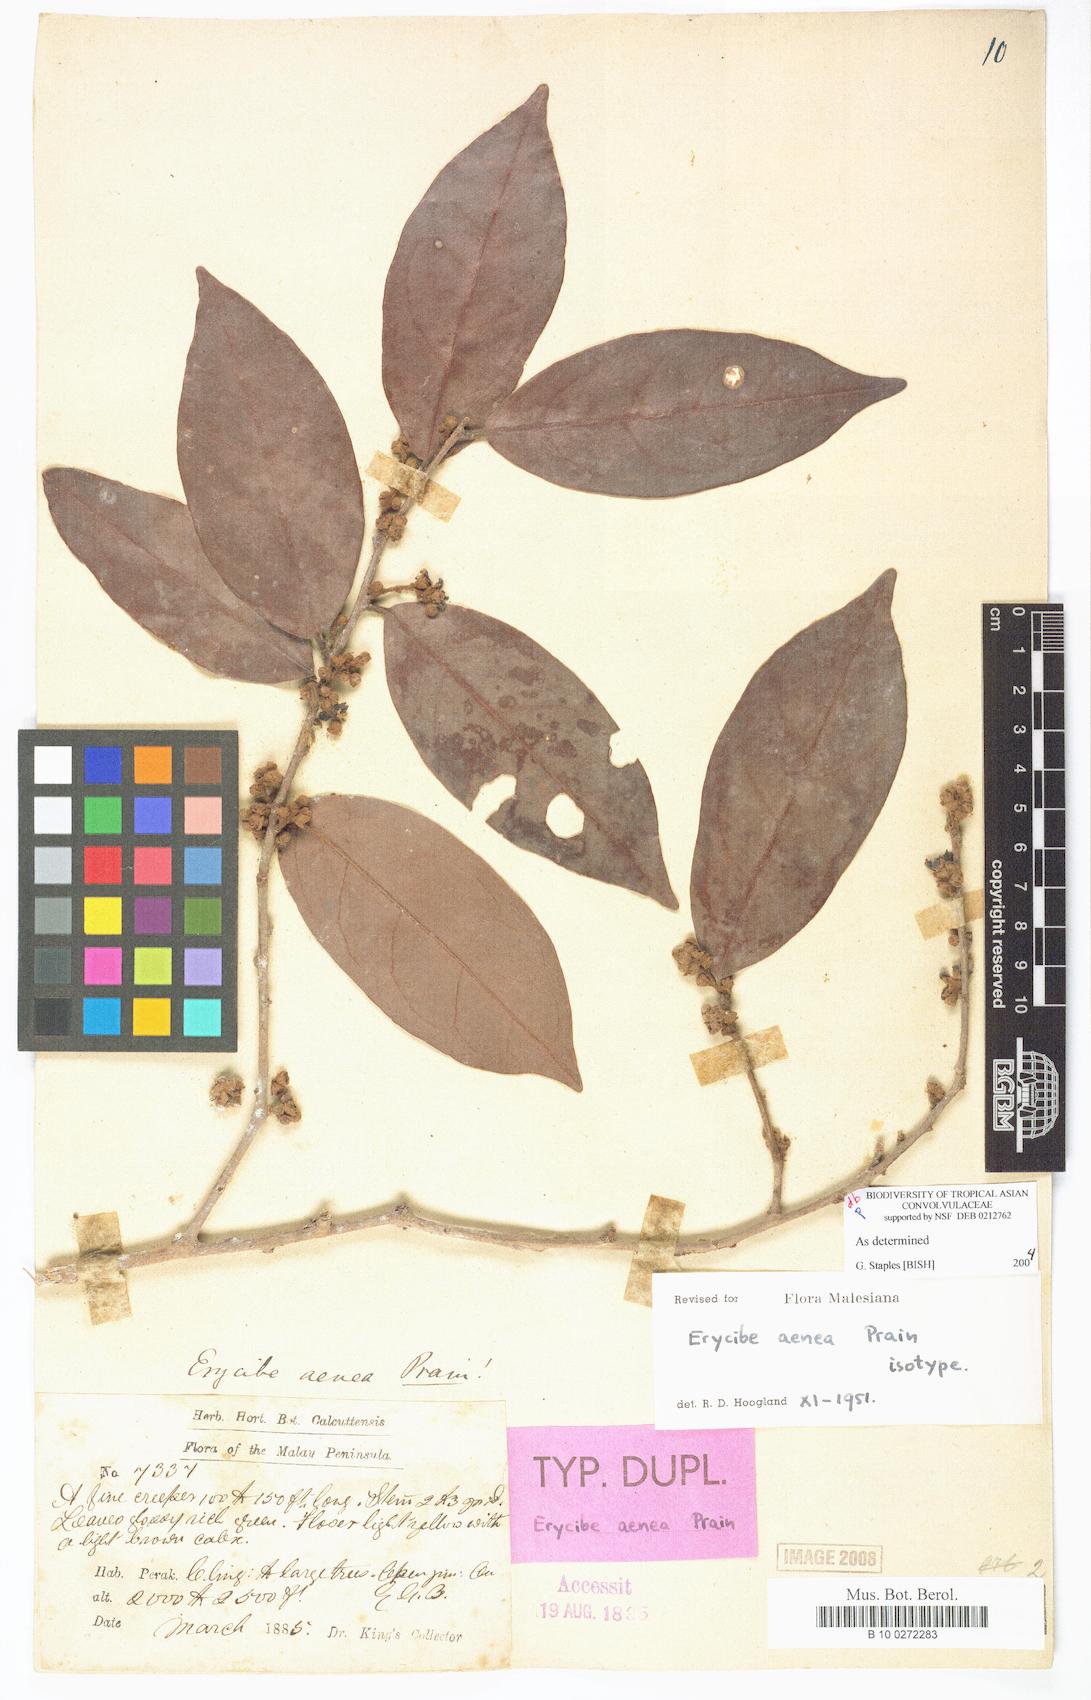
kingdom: Plantae
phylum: Tracheophyta
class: Magnoliopsida
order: Solanales
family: Convolvulaceae
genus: Erycibe
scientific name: Erycibe aenea
